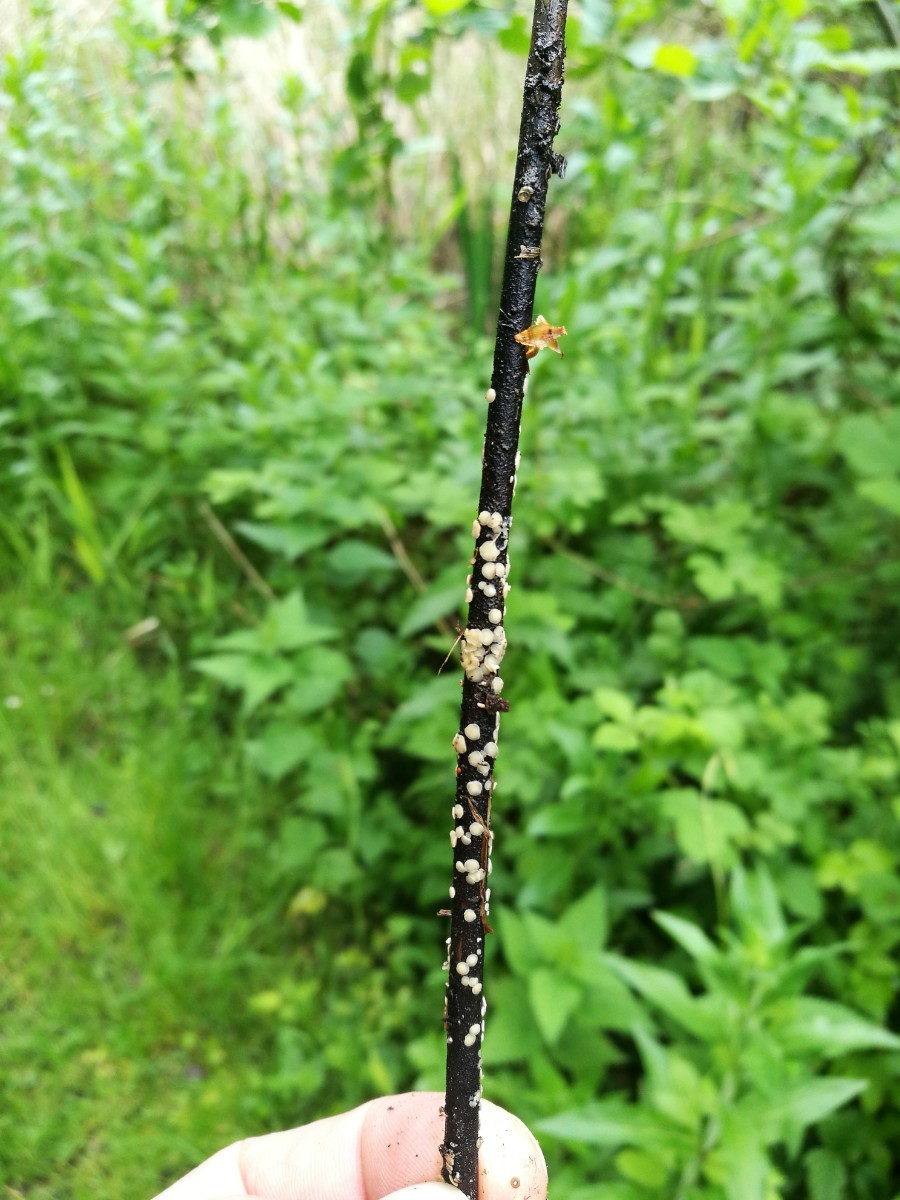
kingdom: Fungi
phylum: Ascomycota
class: Leotiomycetes
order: Helotiales
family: Mollisiaceae
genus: Trichobelonium
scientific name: Trichobelonium kneiffii
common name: tagrør-gråskive
